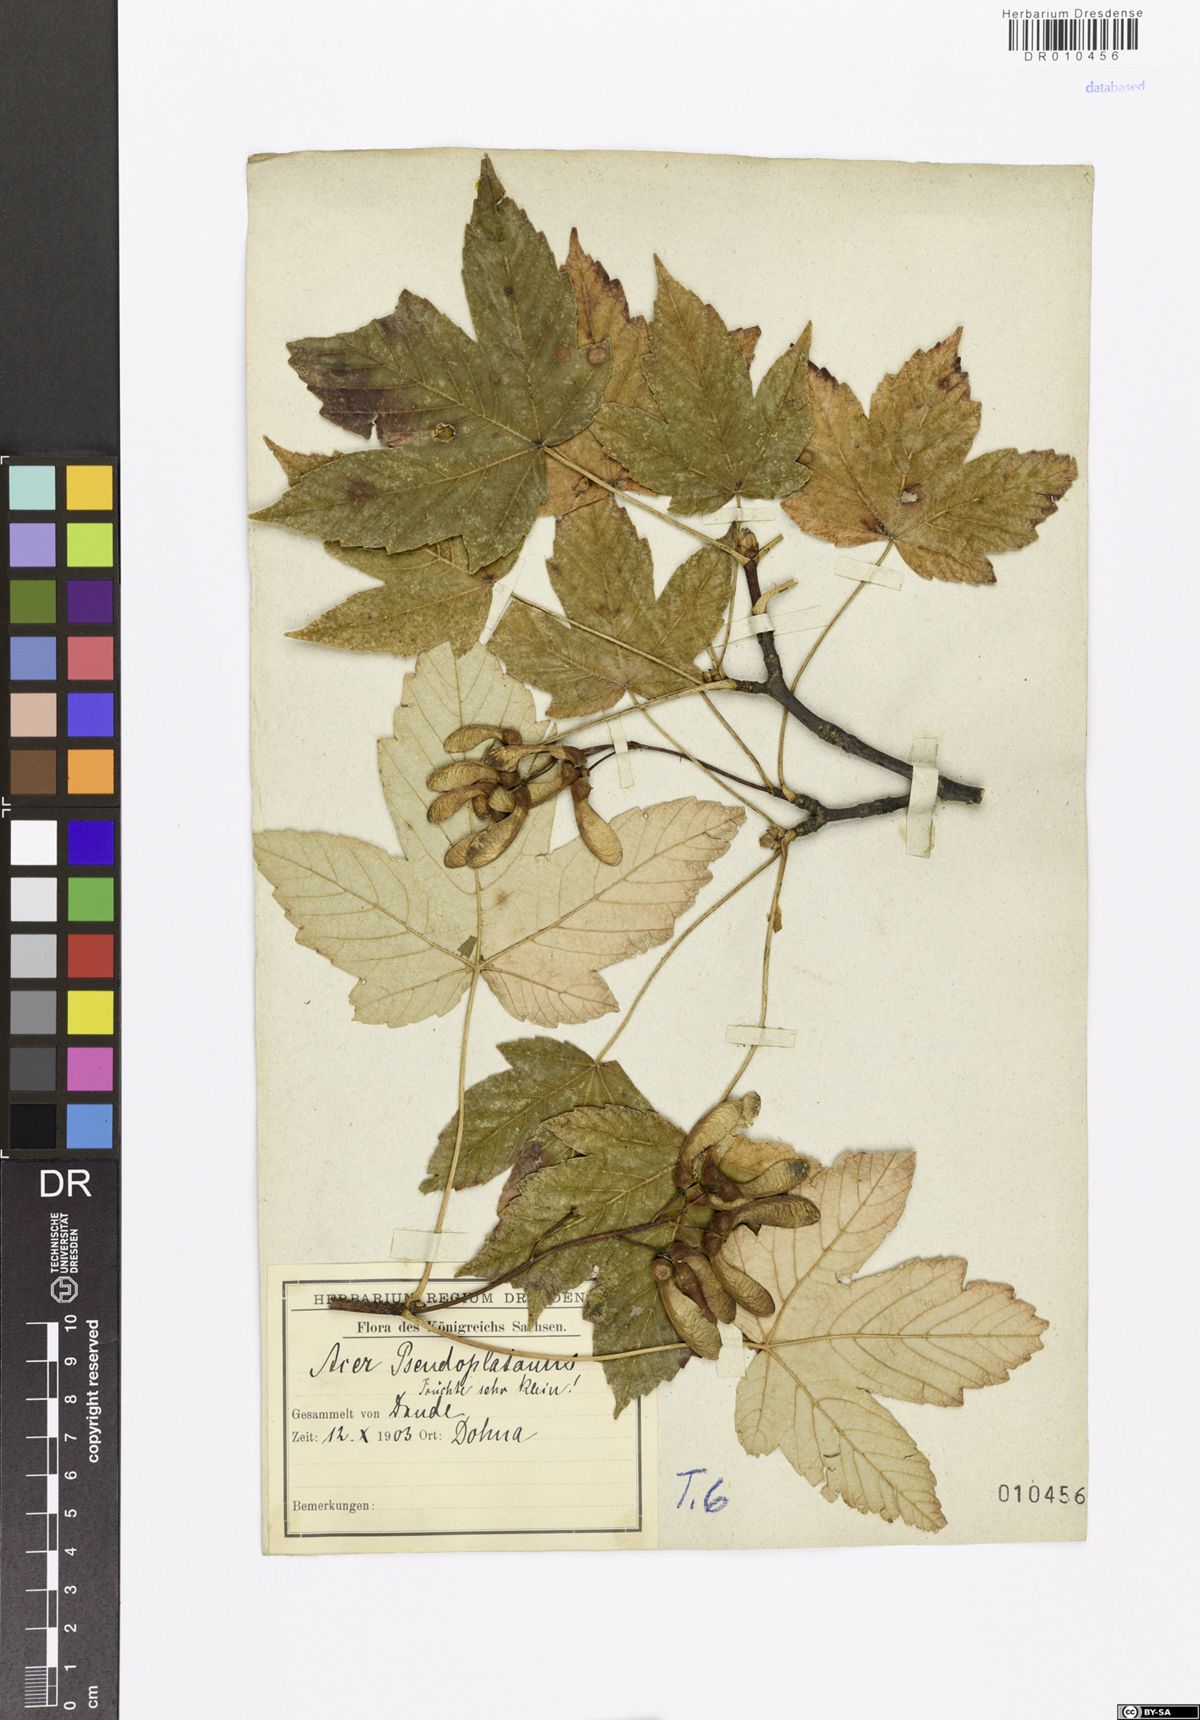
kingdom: Plantae
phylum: Tracheophyta
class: Magnoliopsida
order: Sapindales
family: Sapindaceae
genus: Acer
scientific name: Acer pseudoplatanus
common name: Sycamore
